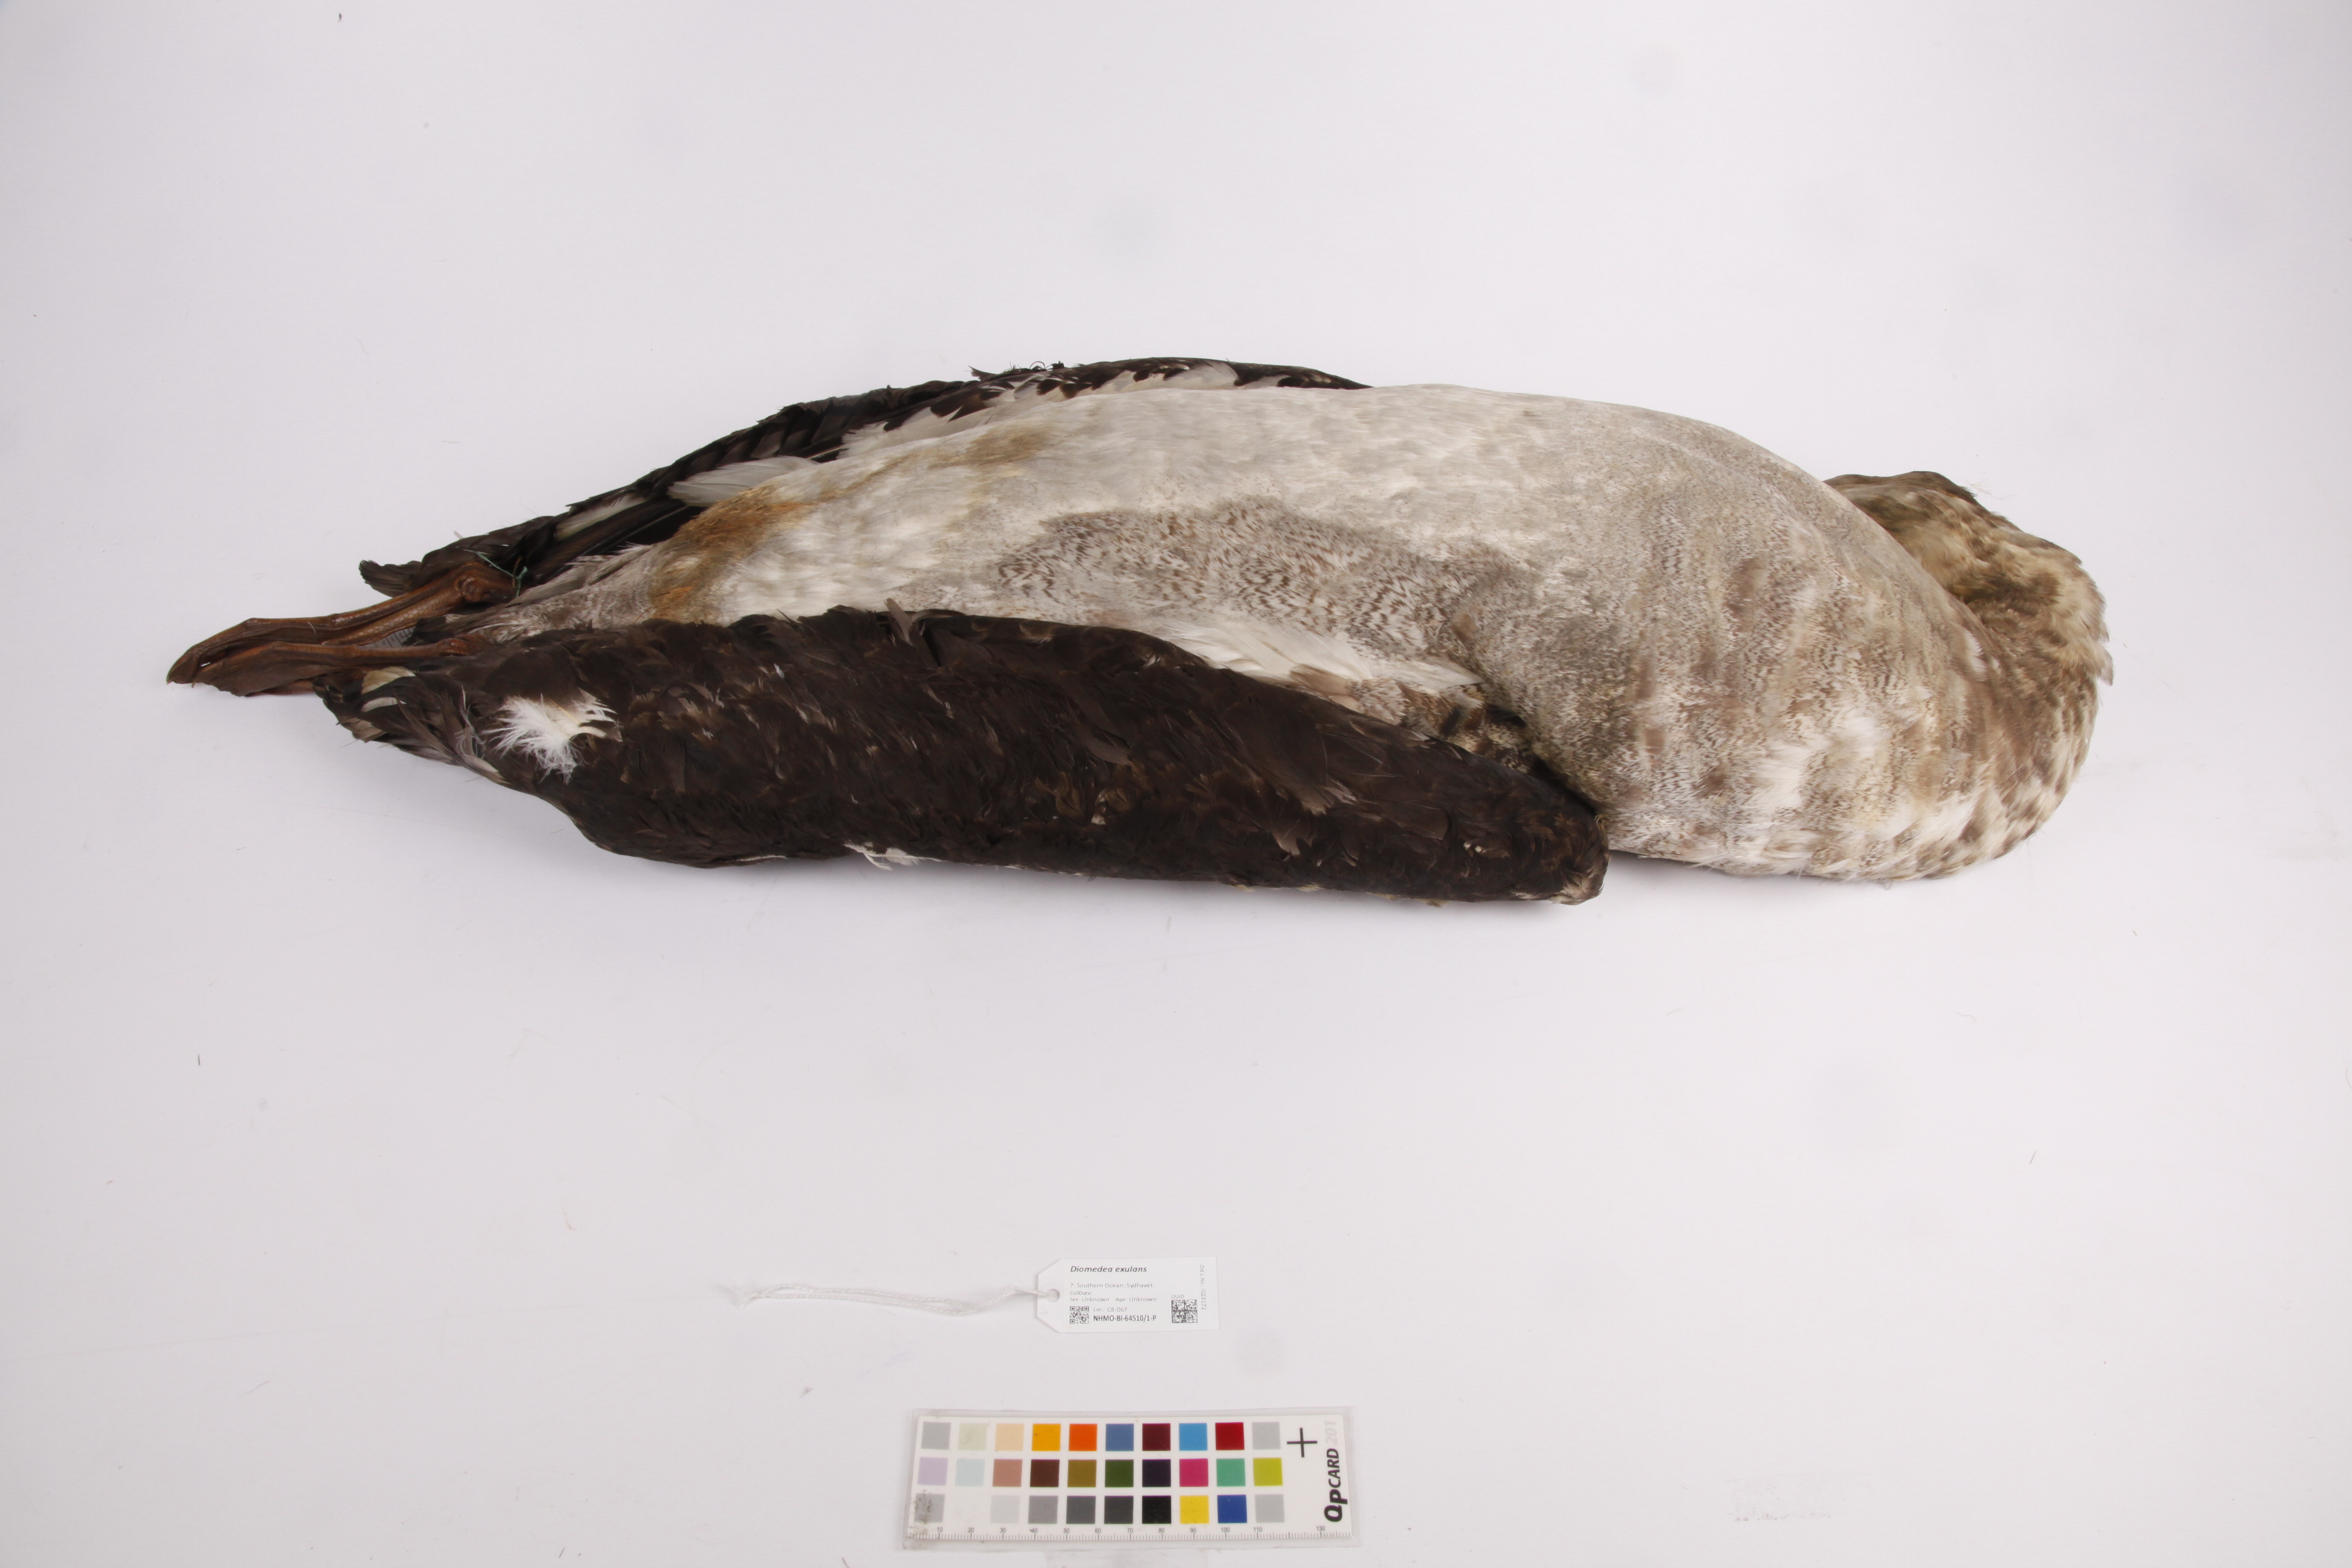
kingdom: Animalia
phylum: Chordata
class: Aves
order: Procellariiformes
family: Diomedeidae
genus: Diomedea
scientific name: Diomedea exulans
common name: Wandering albatross
